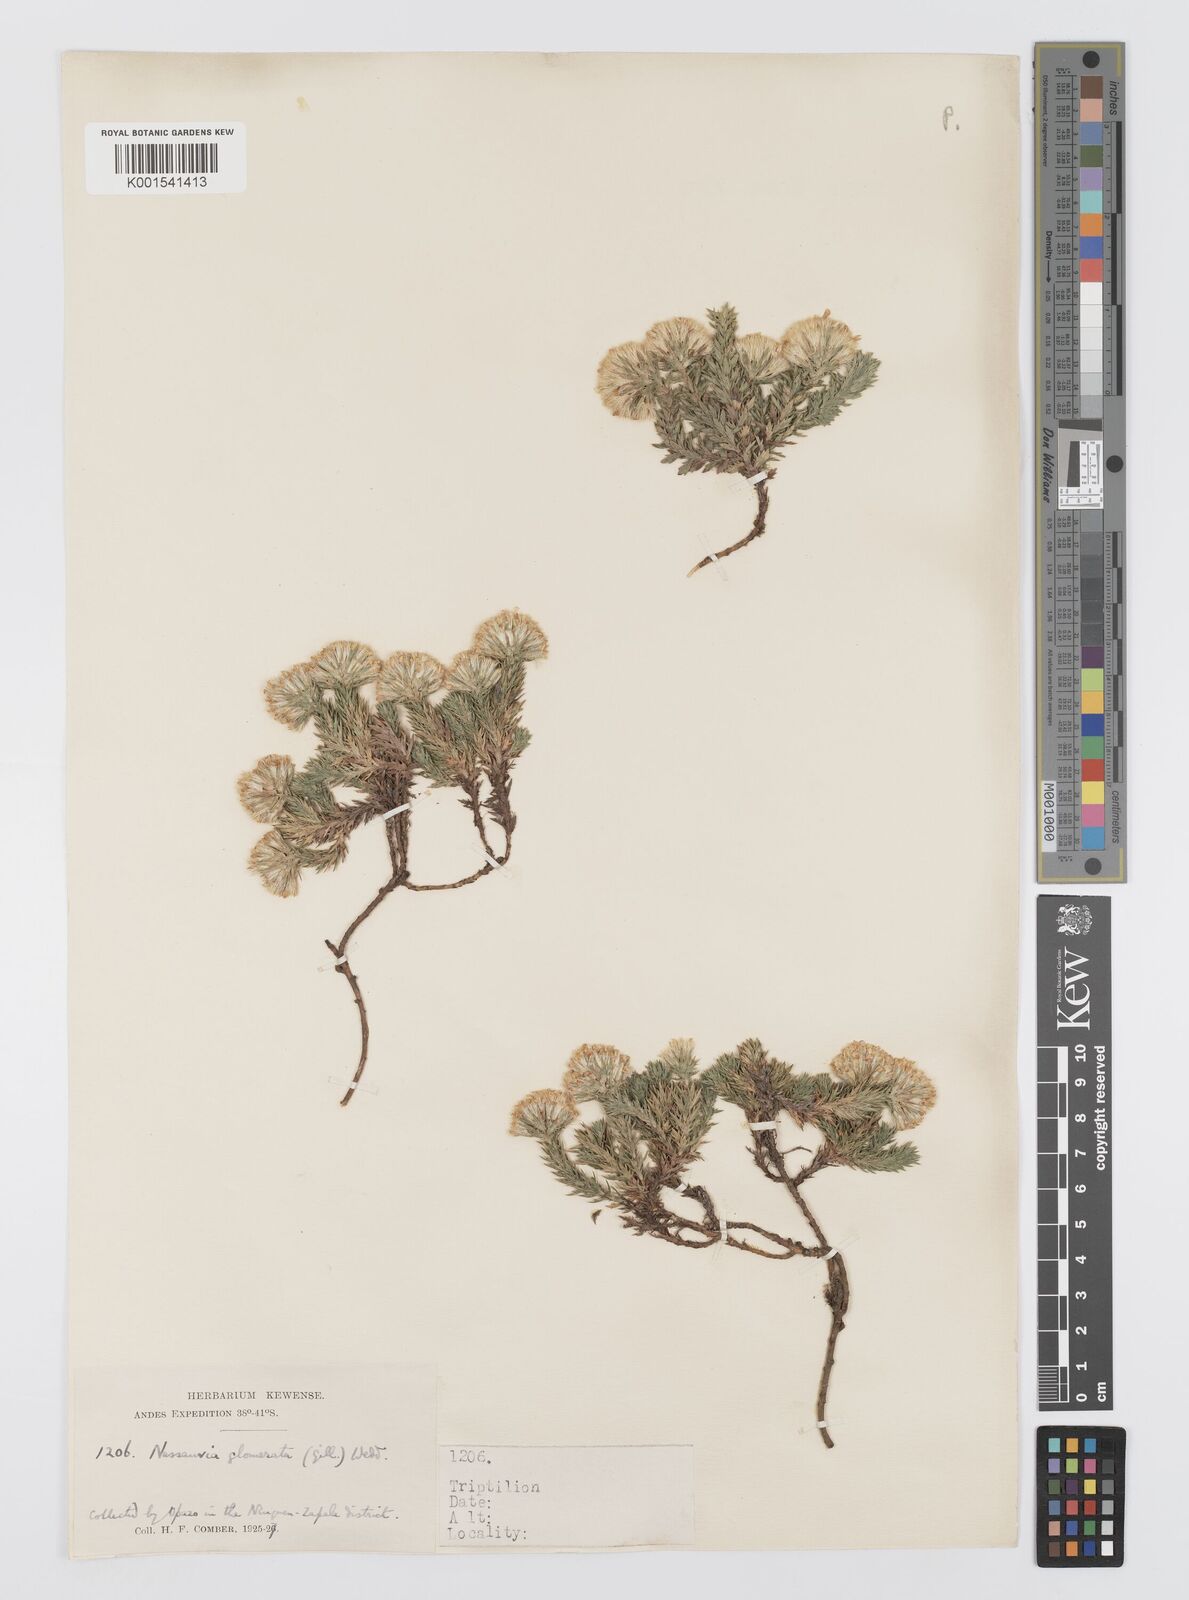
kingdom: Plantae
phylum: Tracheophyta
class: Magnoliopsida
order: Asterales
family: Asteraceae
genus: Nassauvia
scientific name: Nassauvia glomerata
